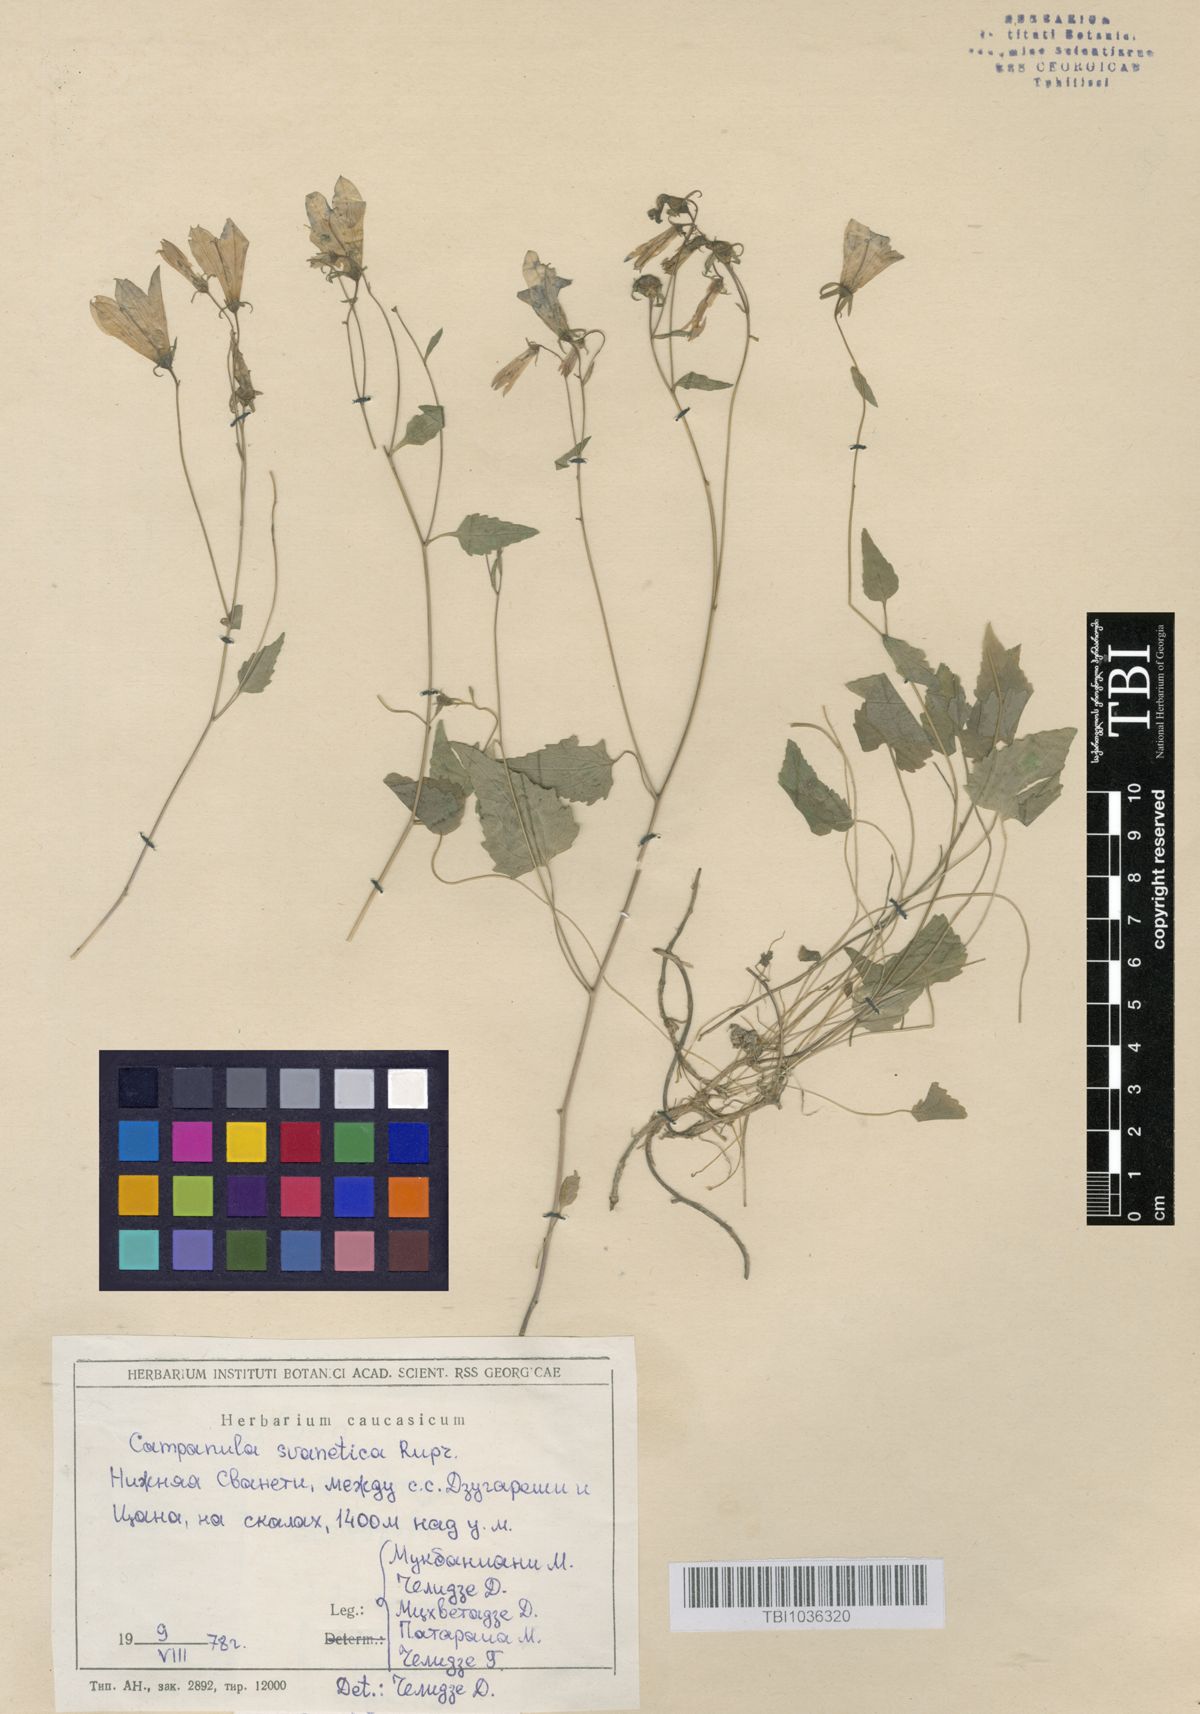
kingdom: Plantae
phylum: Tracheophyta
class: Magnoliopsida
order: Asterales
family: Campanulaceae
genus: Campanula
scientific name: Campanula suanetica
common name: Svanetian bellflower
